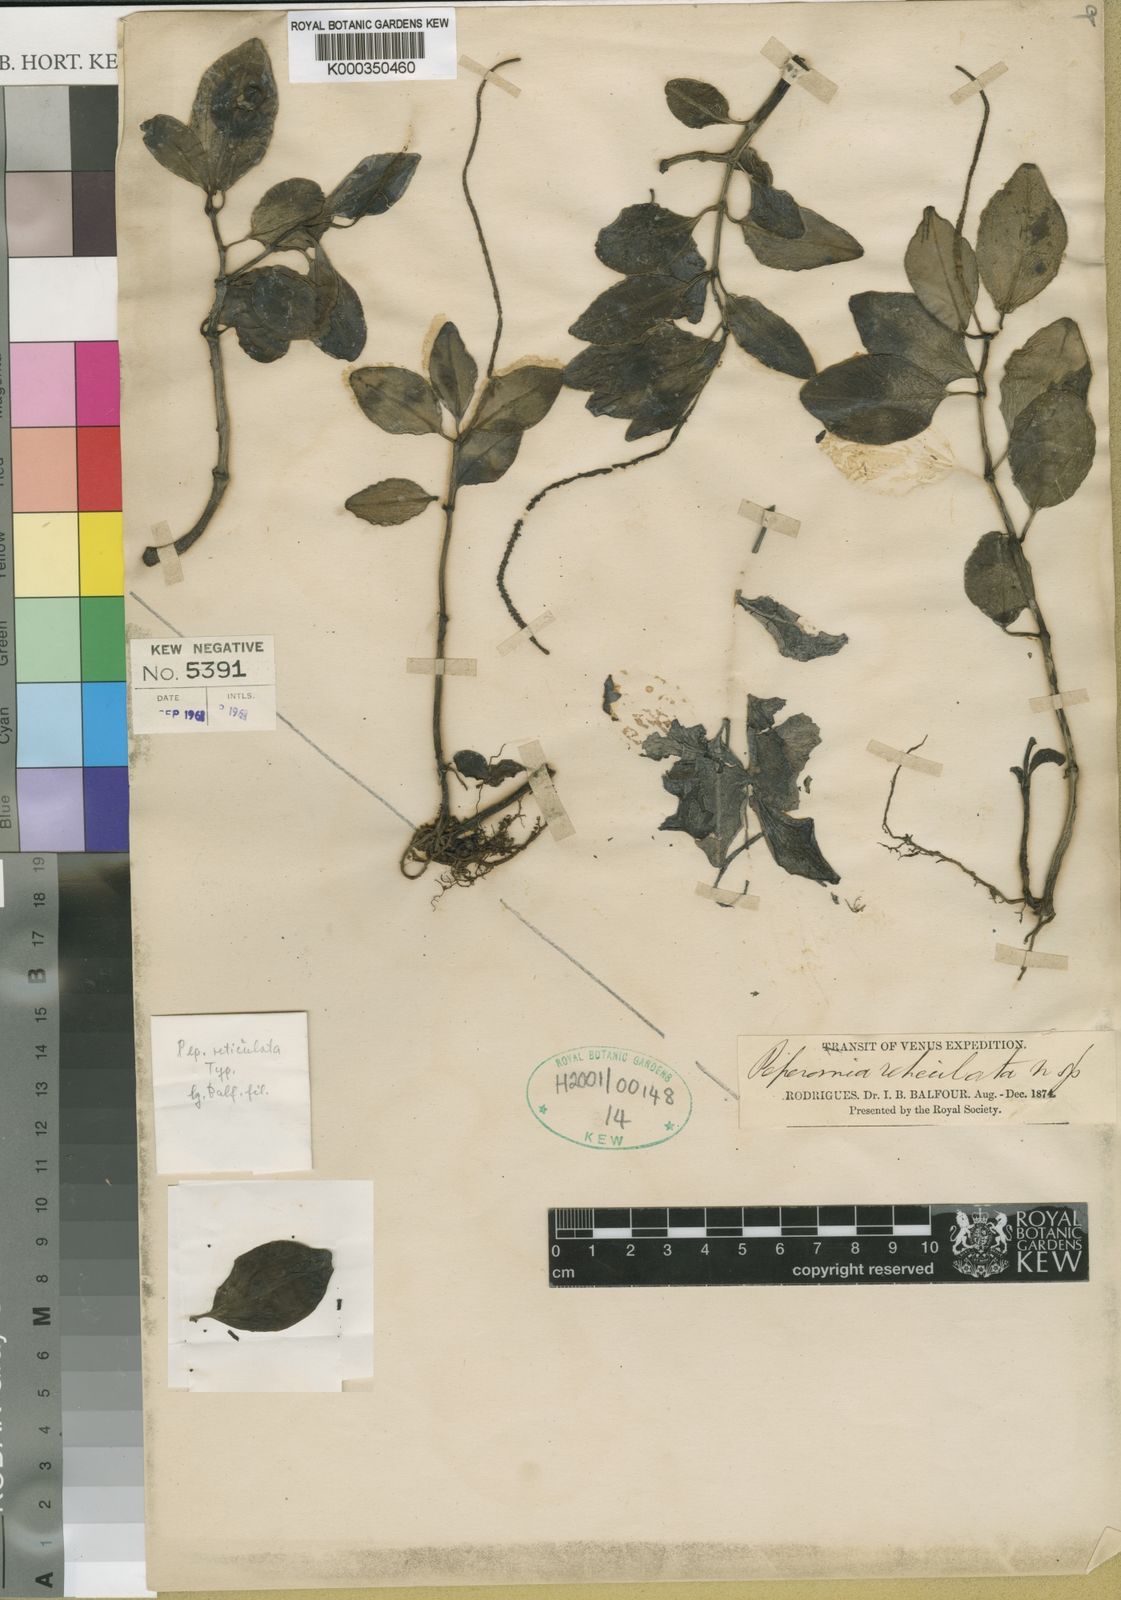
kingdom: Plantae
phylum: Tracheophyta
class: Magnoliopsida
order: Piperales
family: Piperaceae
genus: Peperomia
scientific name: Peperomia reticulata
